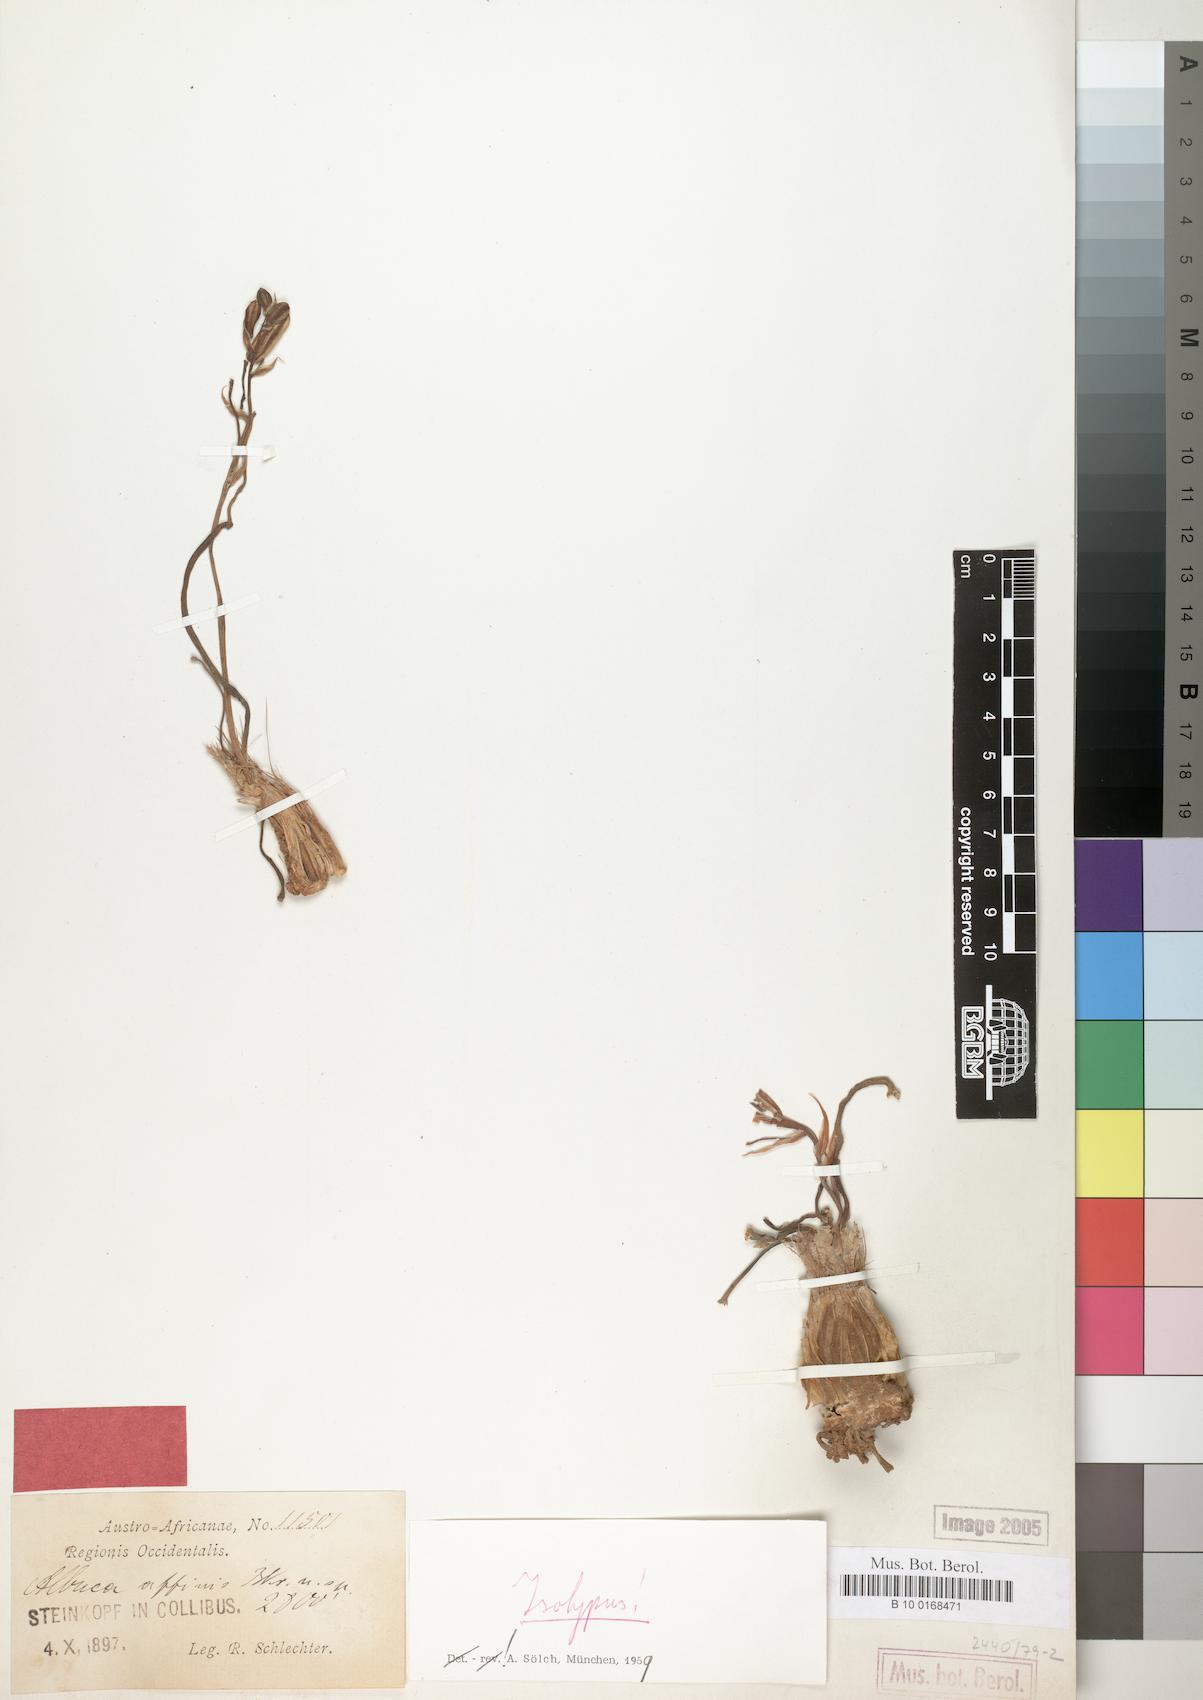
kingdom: Plantae
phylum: Tracheophyta
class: Liliopsida
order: Asparagales
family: Asparagaceae
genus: Ornithogalum
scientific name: Ornithogalum simile
